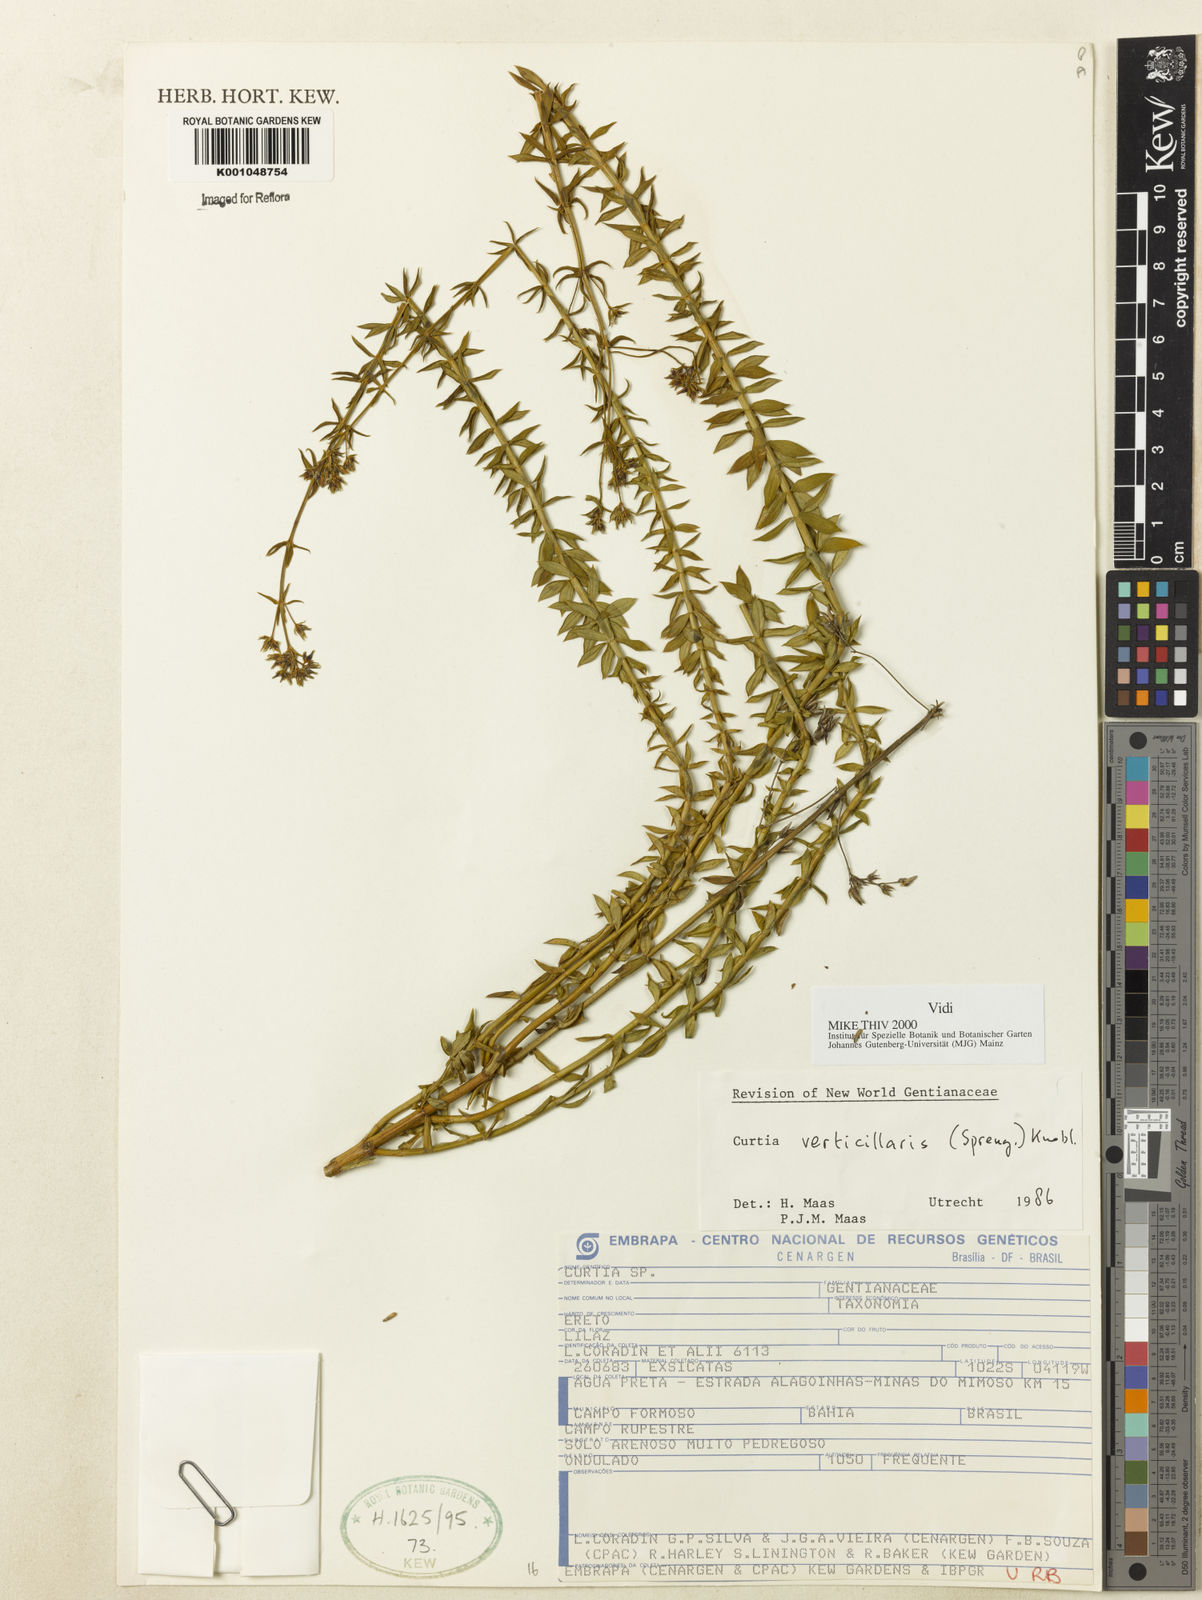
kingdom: Plantae
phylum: Tracheophyta
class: Magnoliopsida
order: Gentianales
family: Gentianaceae
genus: Curtia
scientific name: Curtia verticillaris
